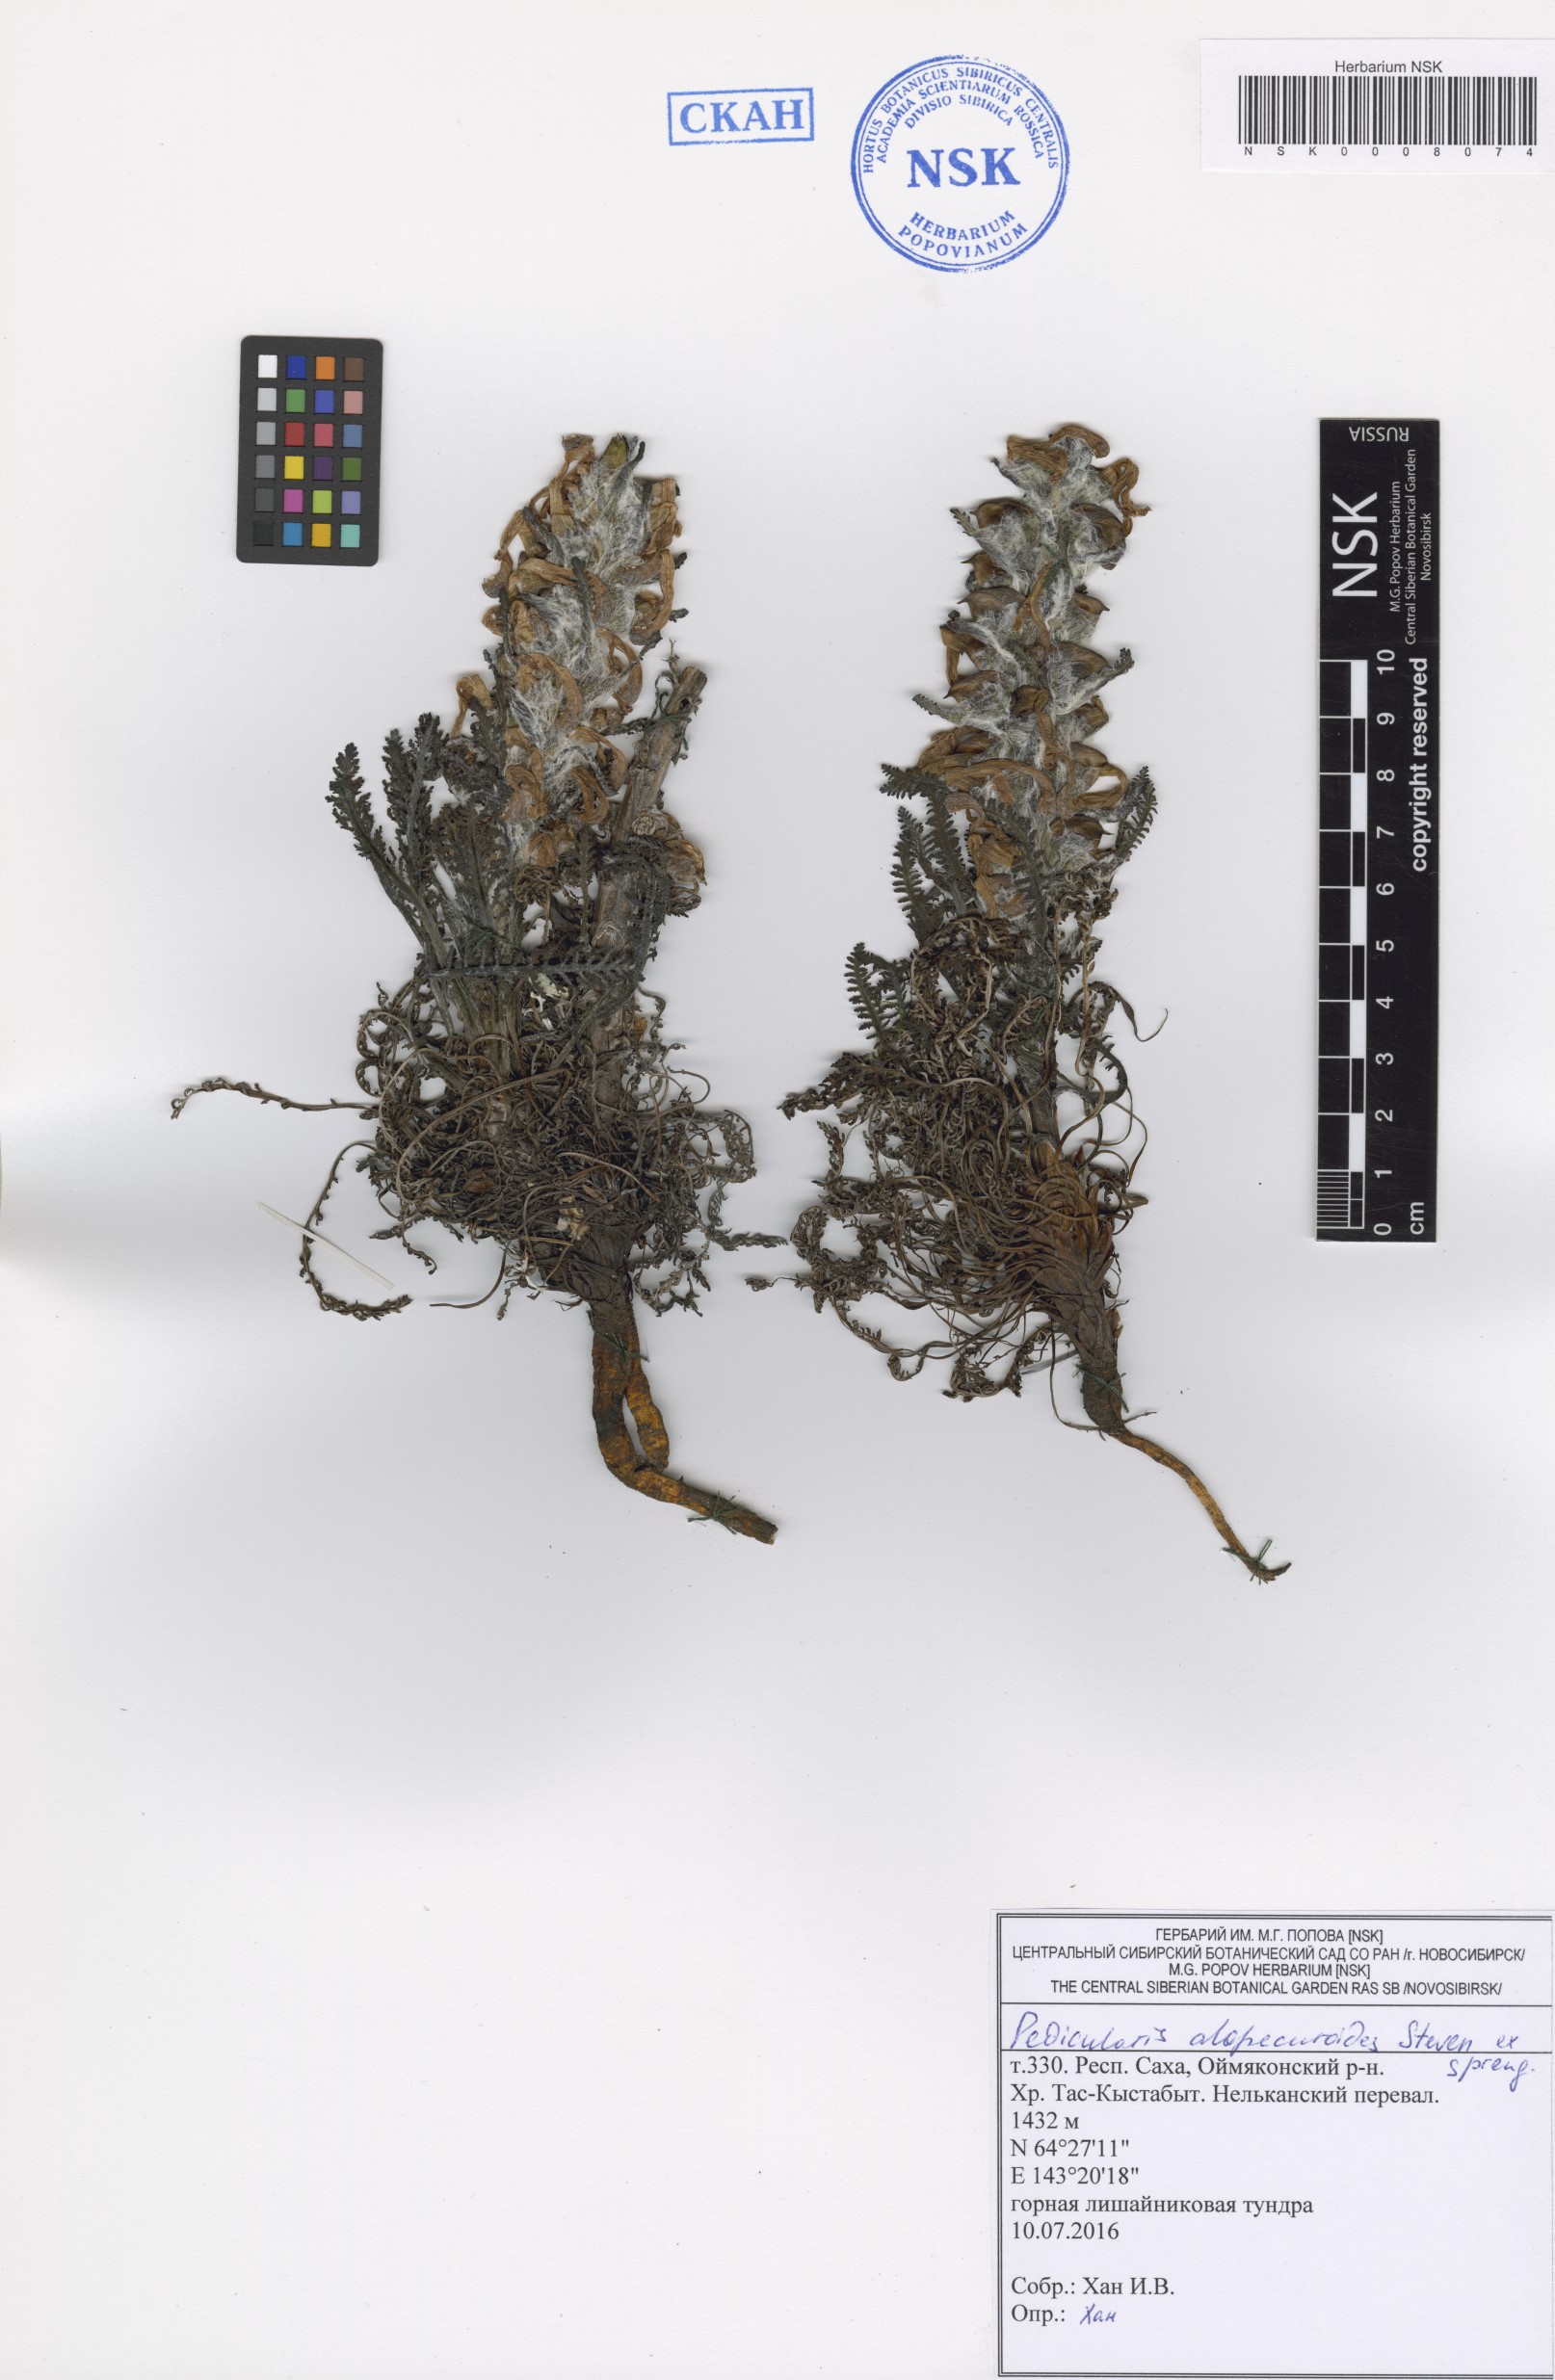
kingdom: Plantae
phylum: Tracheophyta
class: Magnoliopsida
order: Lamiales
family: Orobanchaceae
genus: Pedicularis
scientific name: Pedicularis alopecuroides
